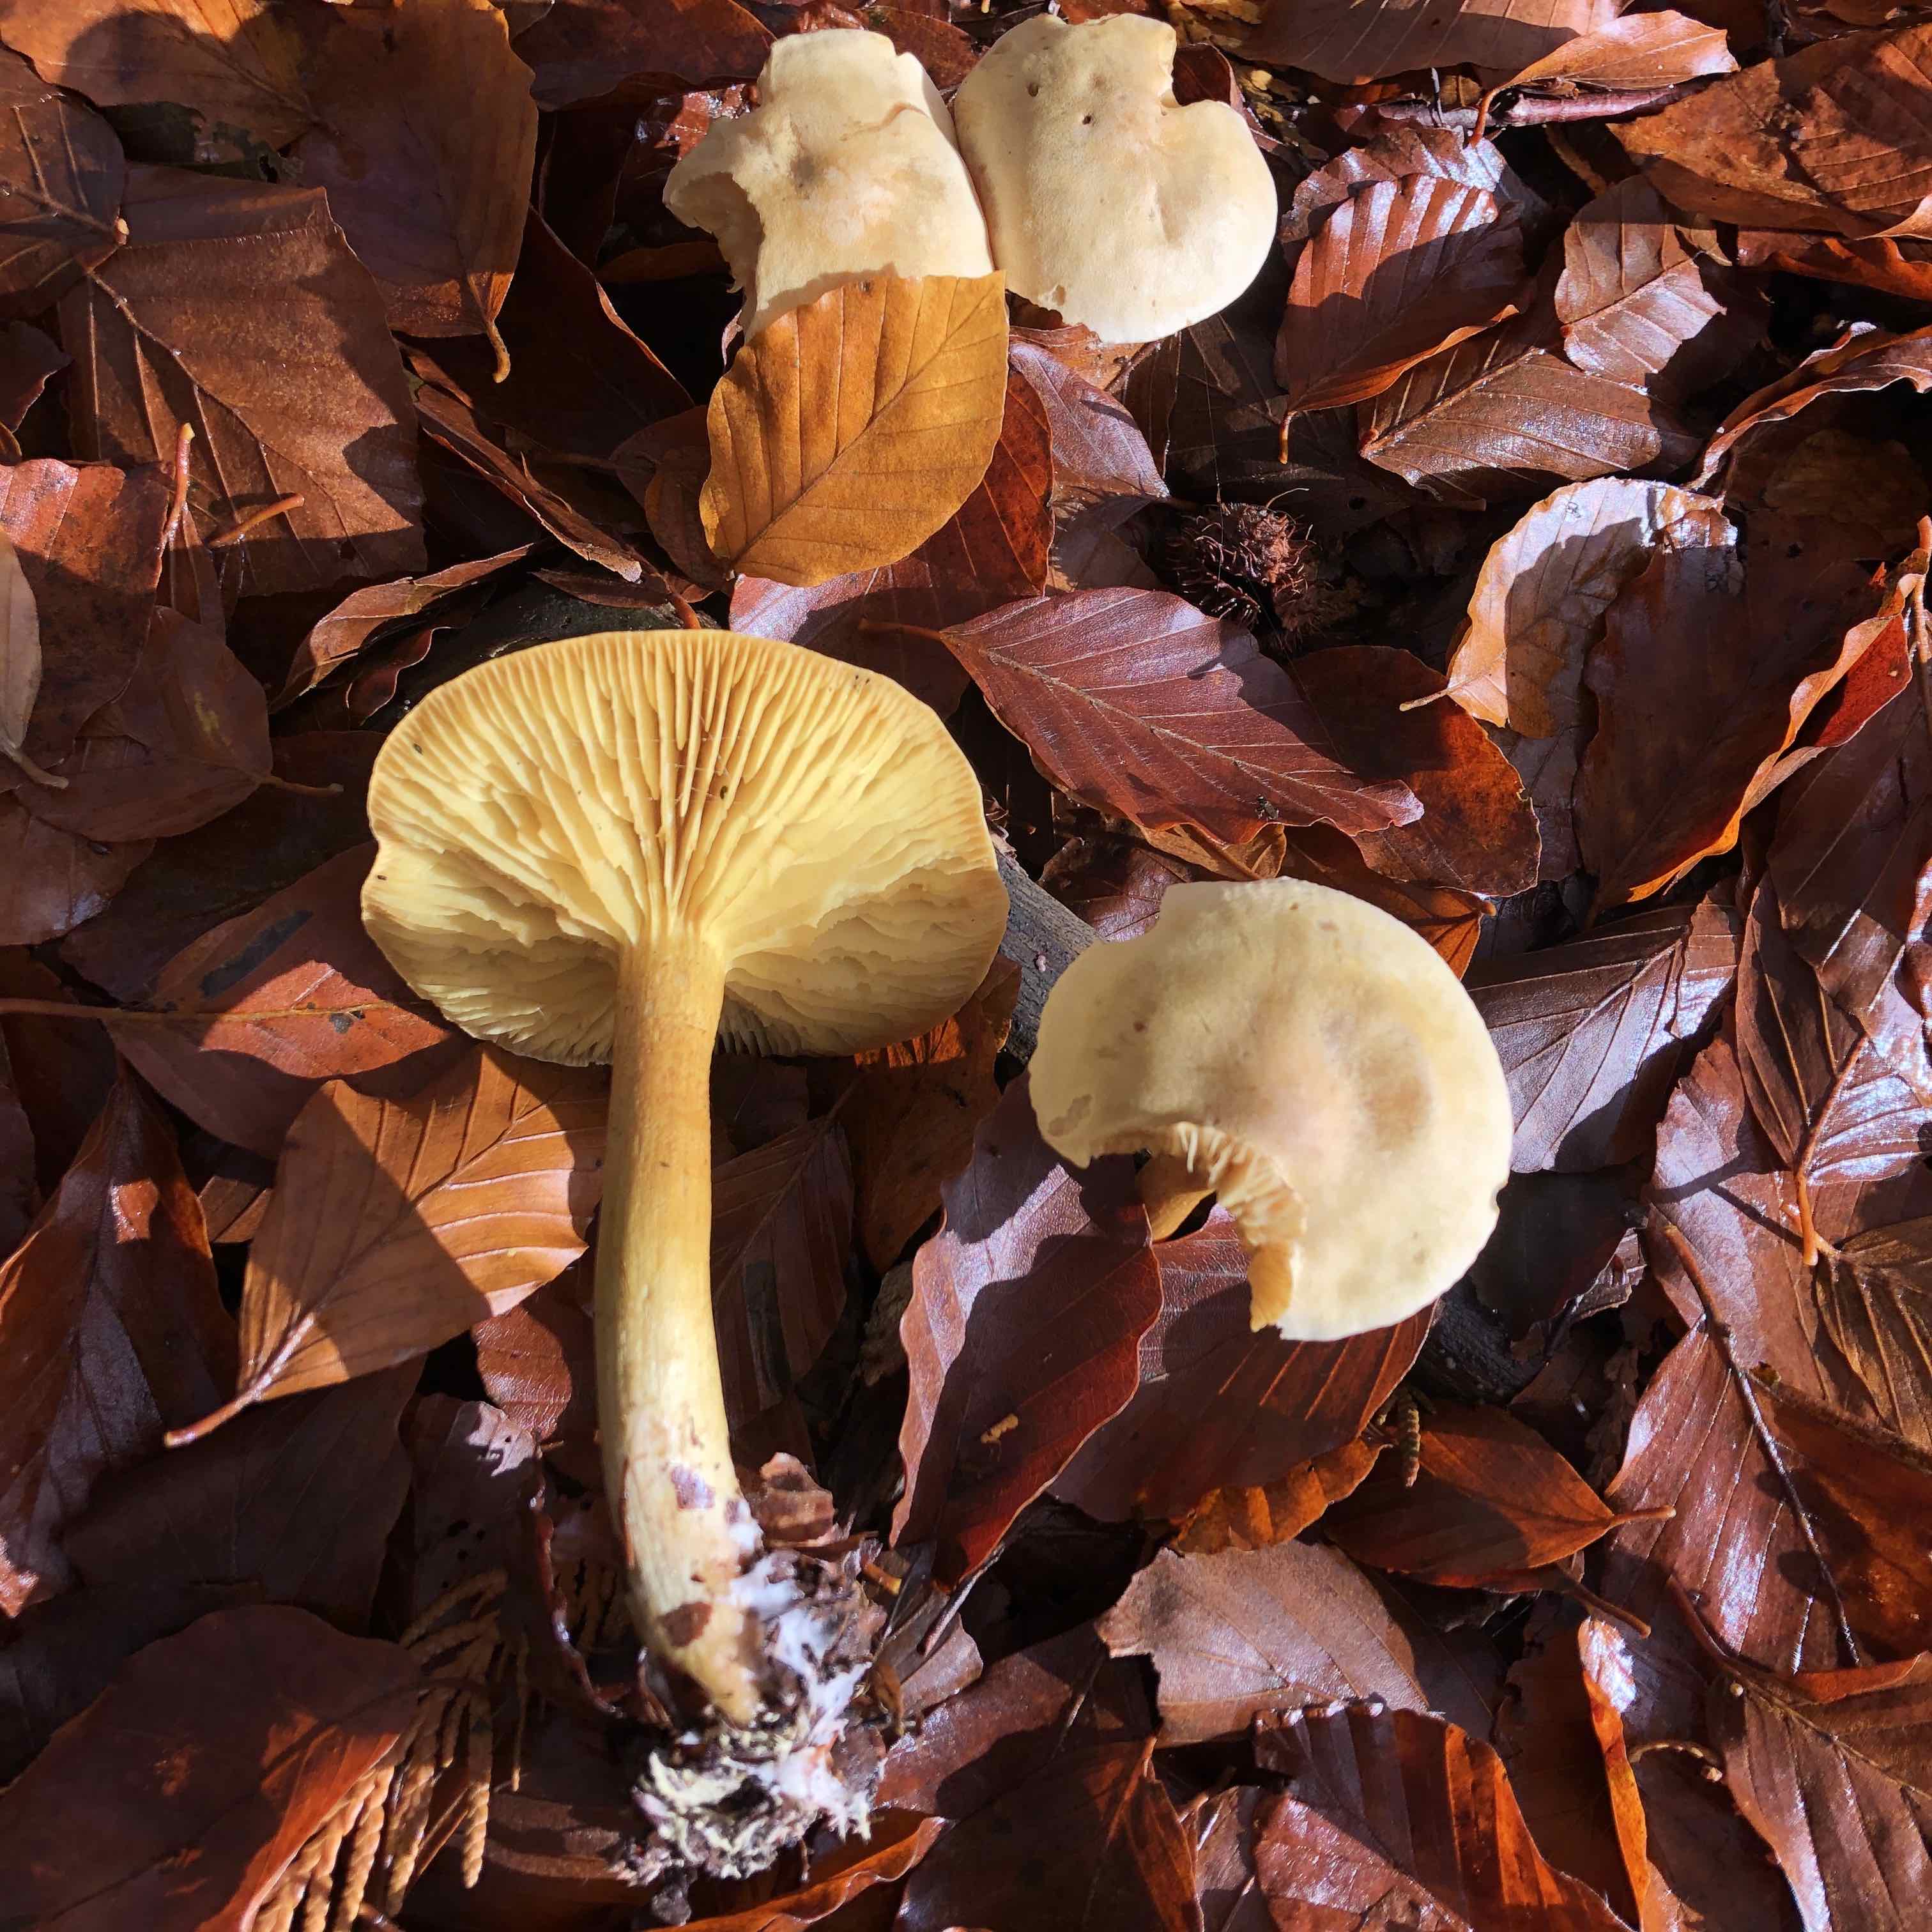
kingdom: Fungi
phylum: Basidiomycota
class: Agaricomycetes
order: Agaricales
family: Tricholomataceae
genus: Tricholoma
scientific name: Tricholoma sulphureum
